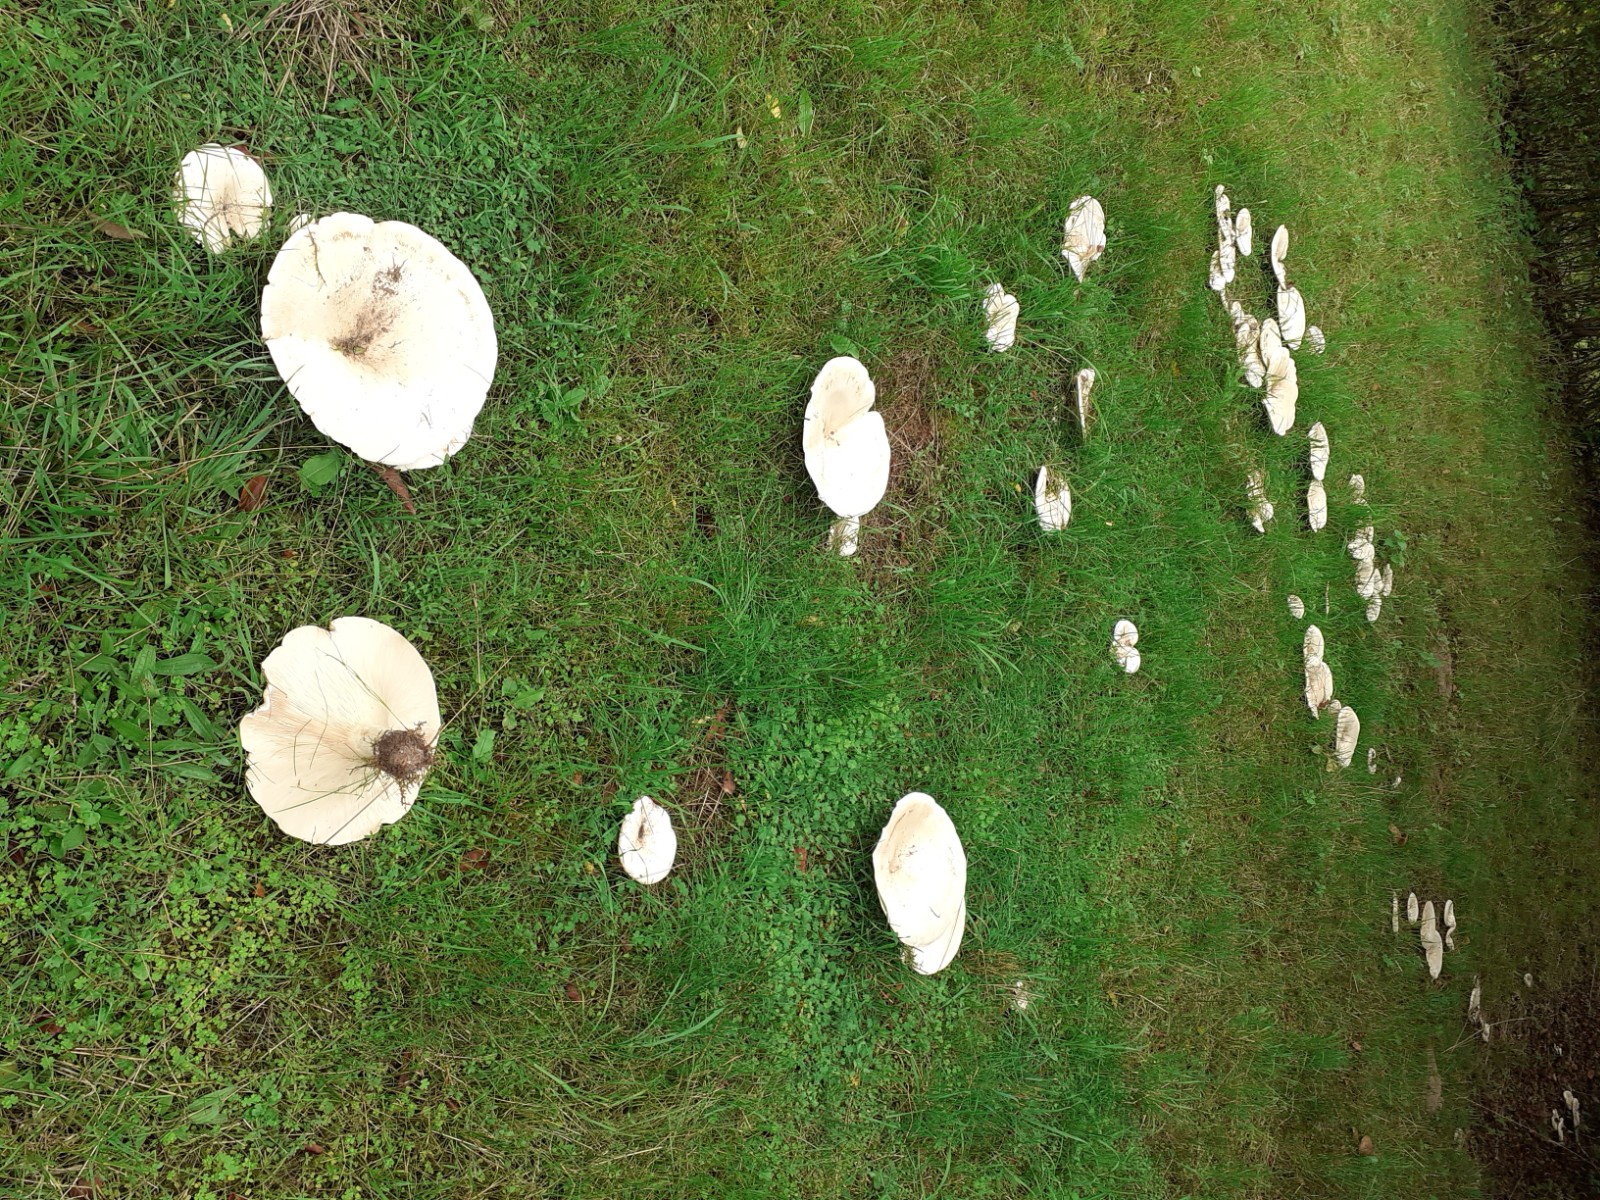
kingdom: Fungi
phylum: Basidiomycota
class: Agaricomycetes
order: Agaricales
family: Tricholomataceae
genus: Aspropaxillus
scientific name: Aspropaxillus giganteus
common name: kæmpe-tragtridderhat
